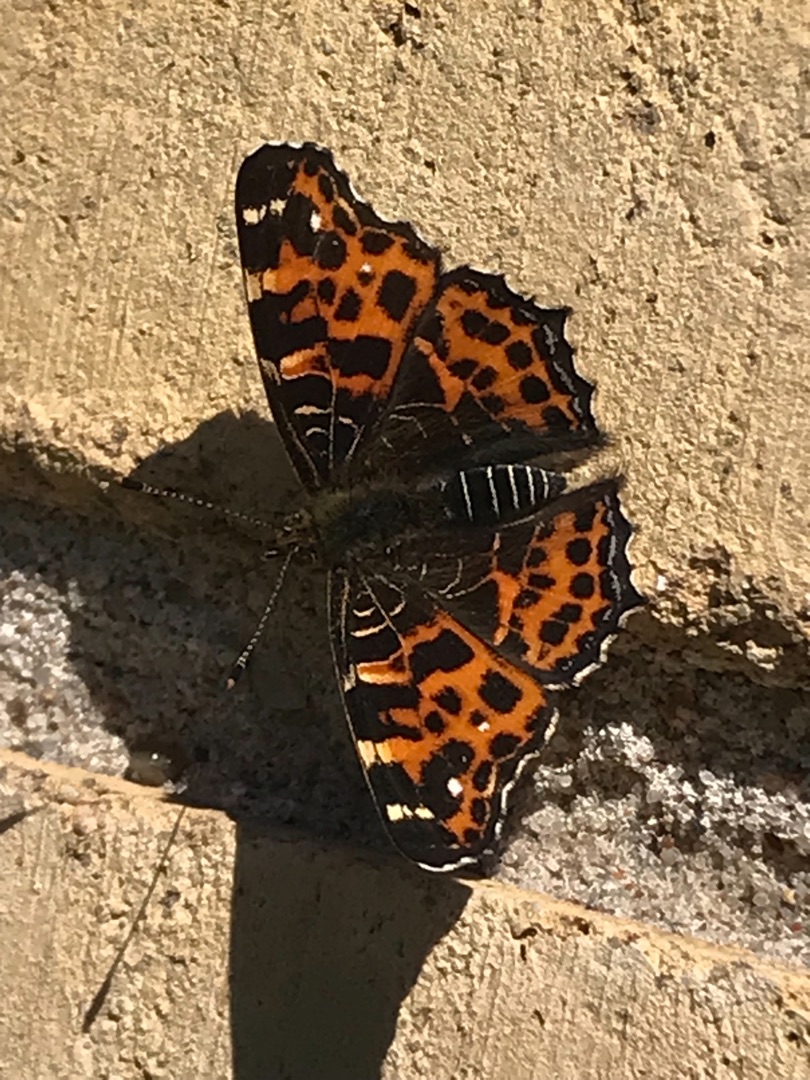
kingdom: Animalia
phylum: Arthropoda
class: Insecta
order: Lepidoptera
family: Nymphalidae
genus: Araschnia
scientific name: Araschnia levana
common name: Nældesommerfugl
